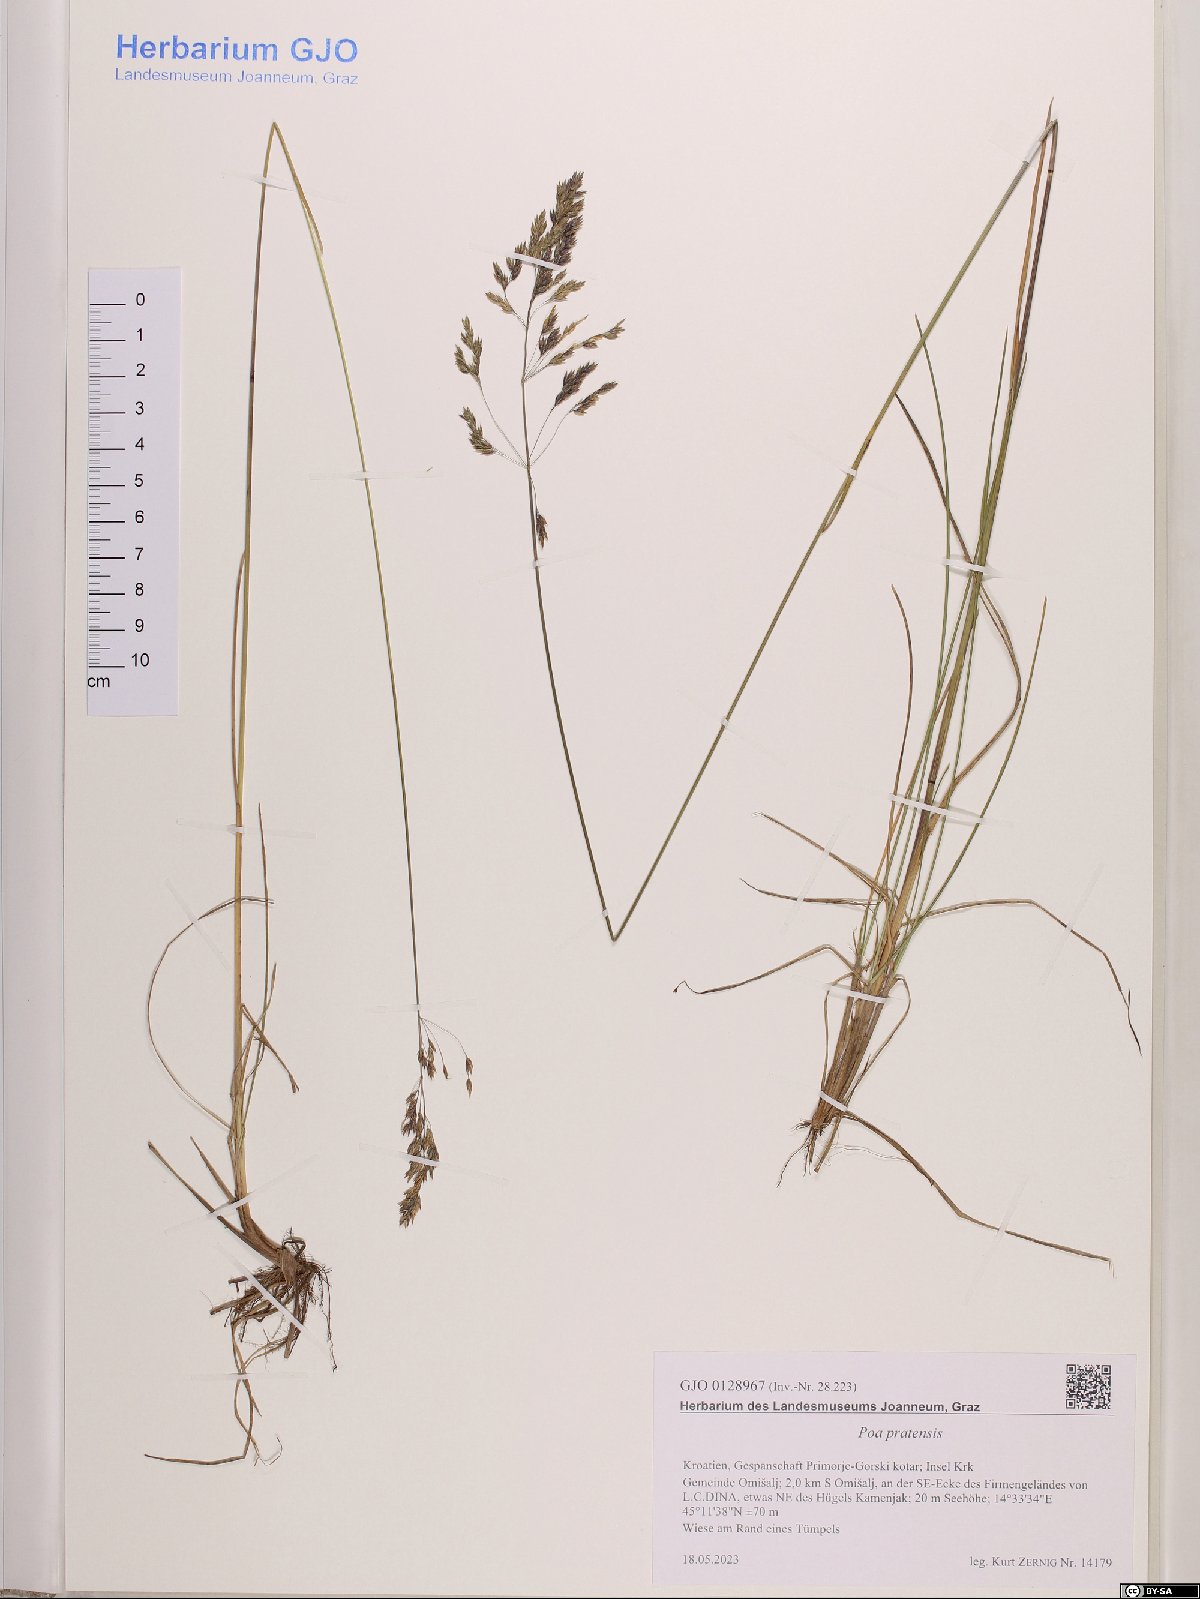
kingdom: Plantae
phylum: Tracheophyta
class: Liliopsida
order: Poales
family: Poaceae
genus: Poa
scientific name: Poa pratensis
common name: Kentucky bluegrass
